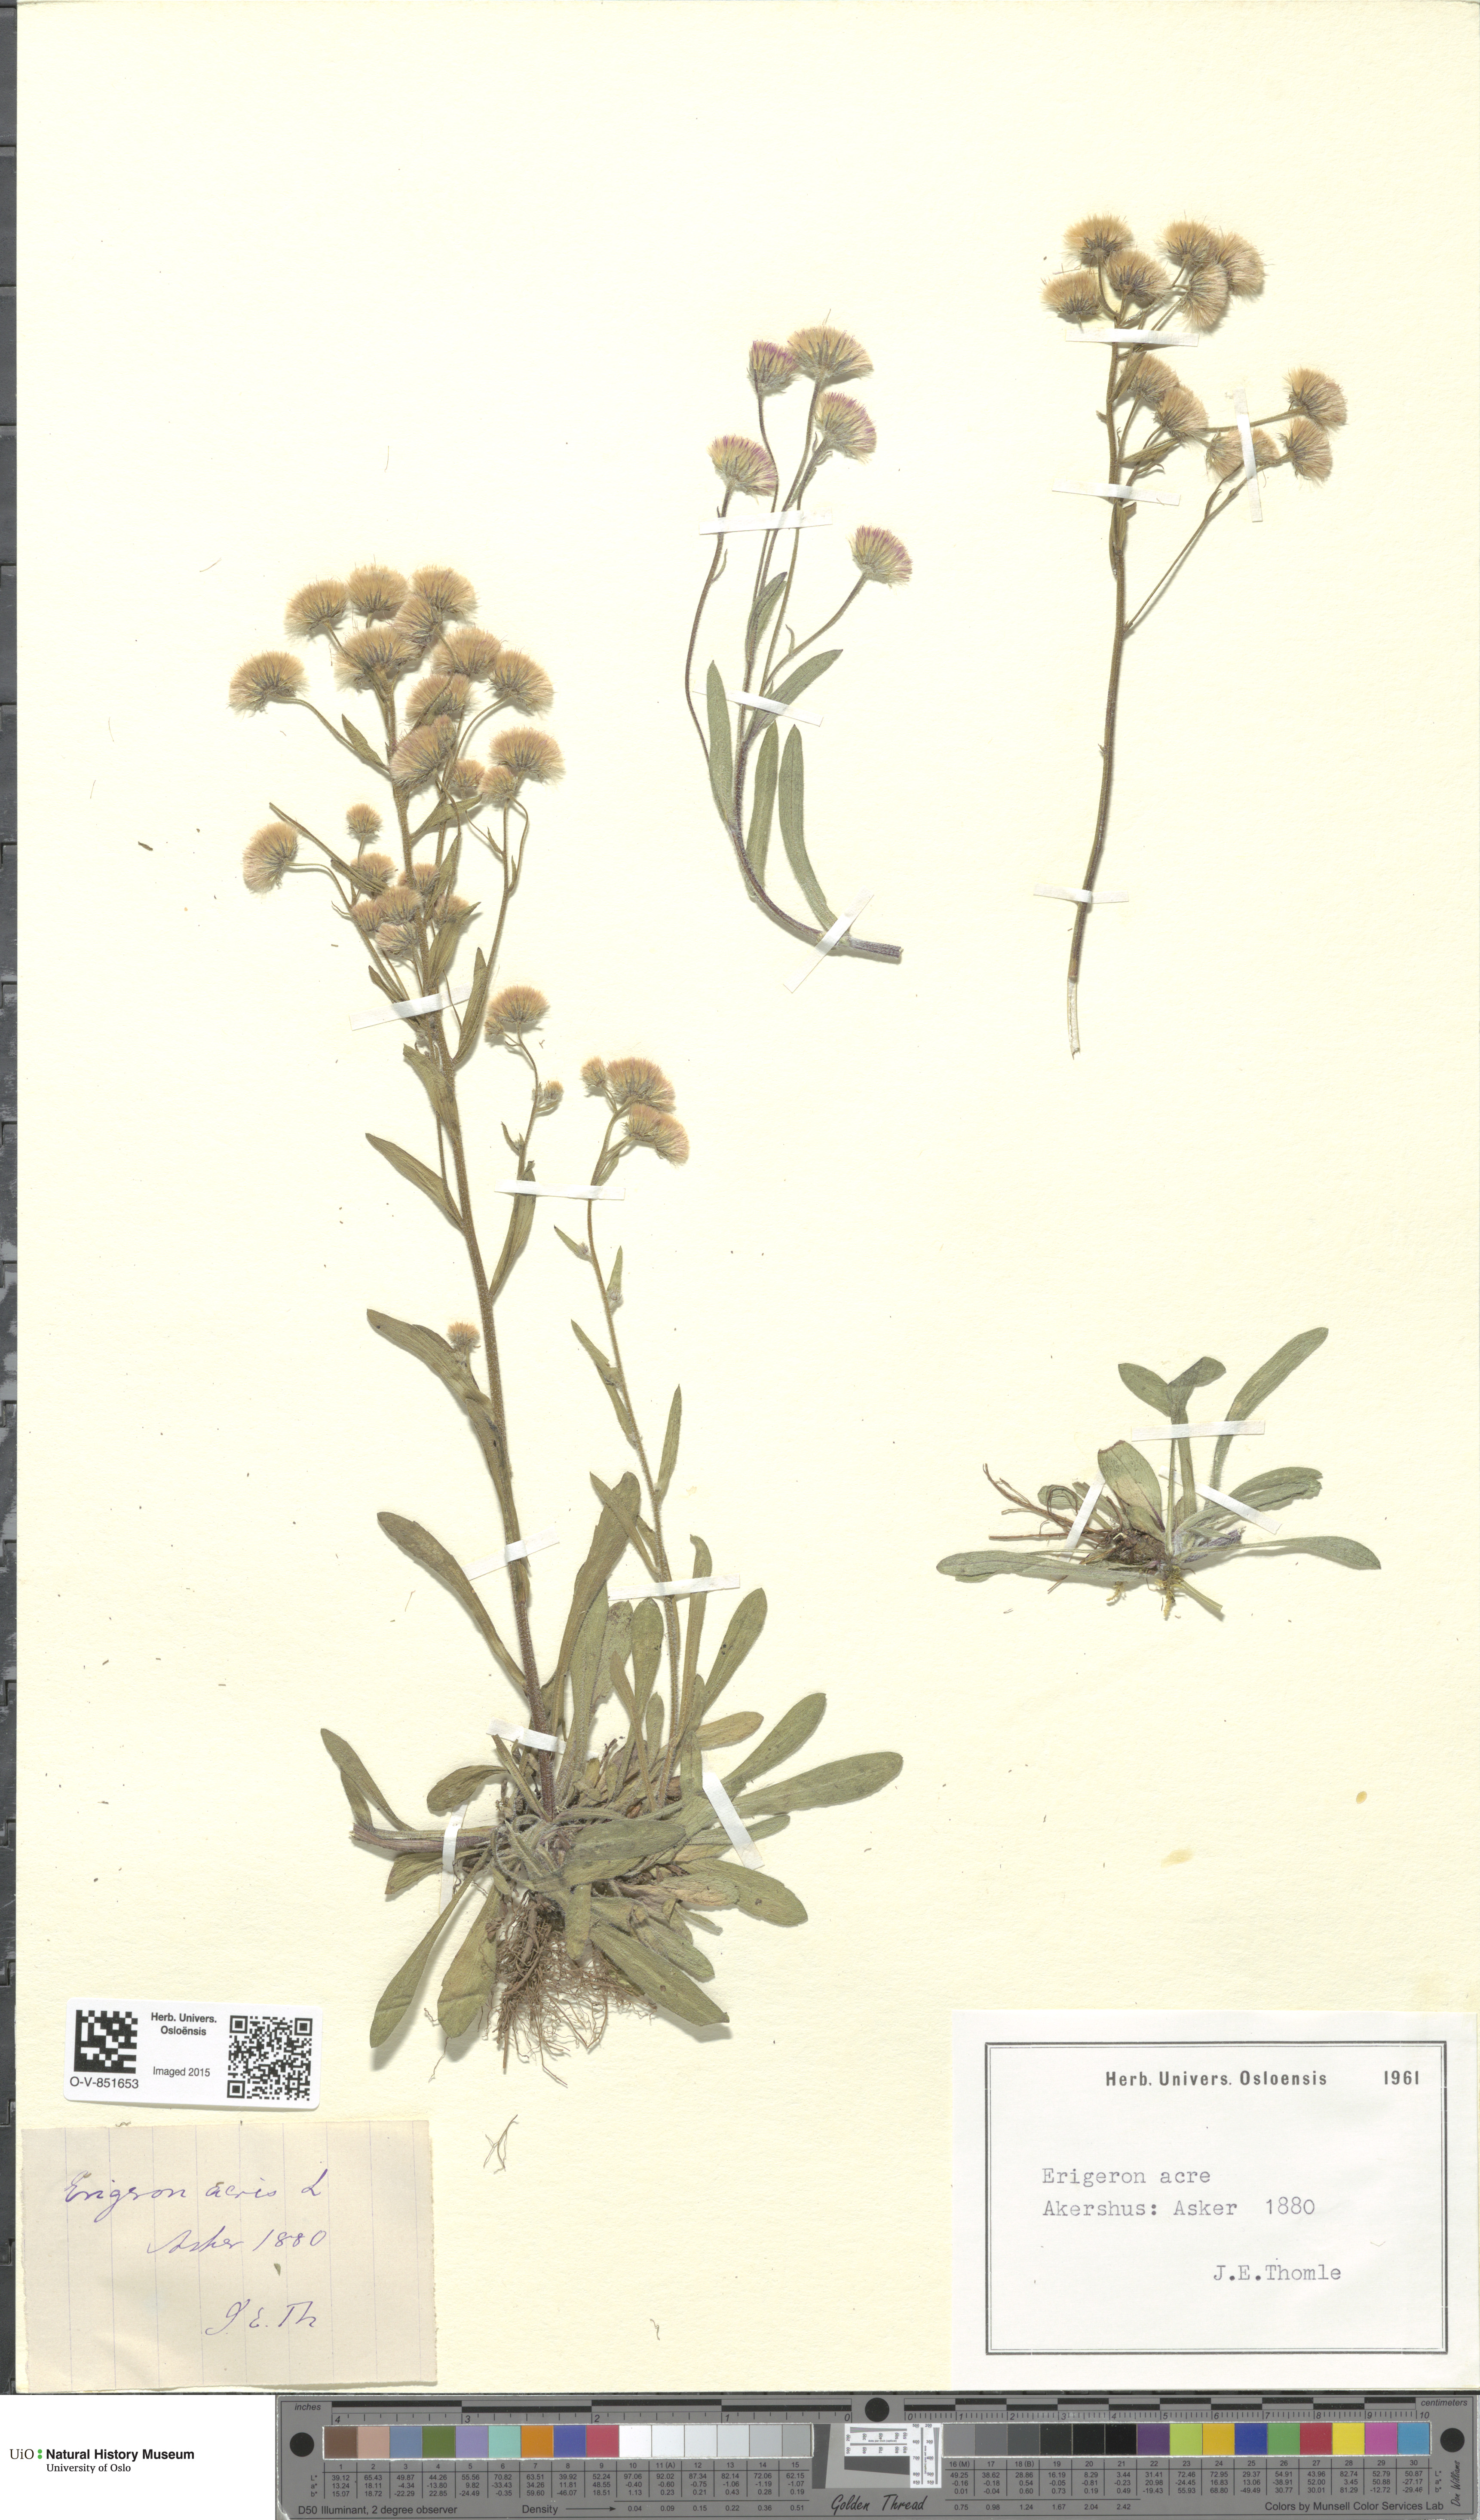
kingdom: Plantae
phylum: Tracheophyta
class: Magnoliopsida
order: Asterales
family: Asteraceae
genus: Erigeron
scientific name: Erigeron acris
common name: Blue fleabane
